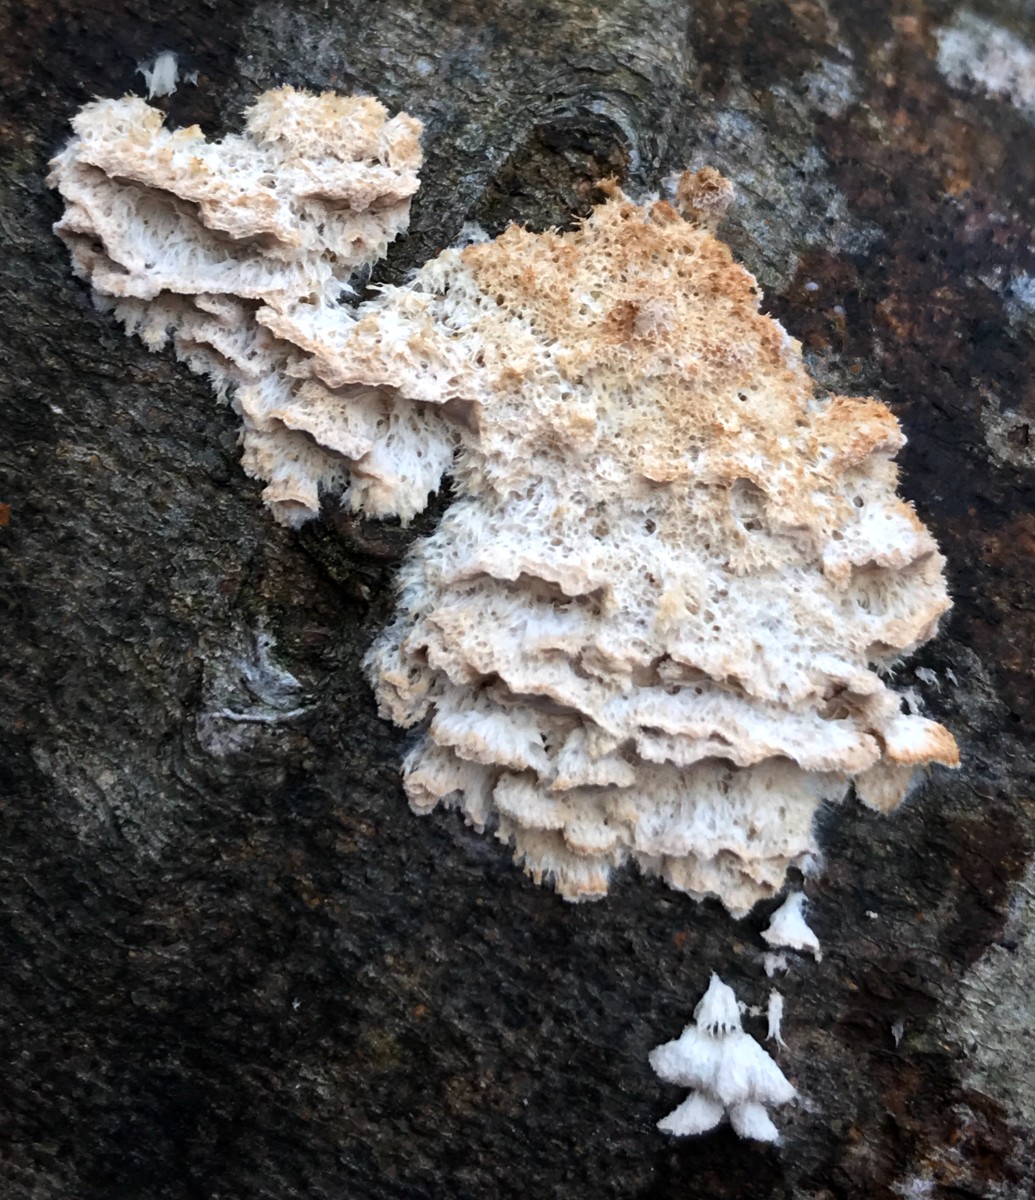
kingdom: Fungi
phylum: Basidiomycota
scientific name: Basidiomycota
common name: basidiesvampe
